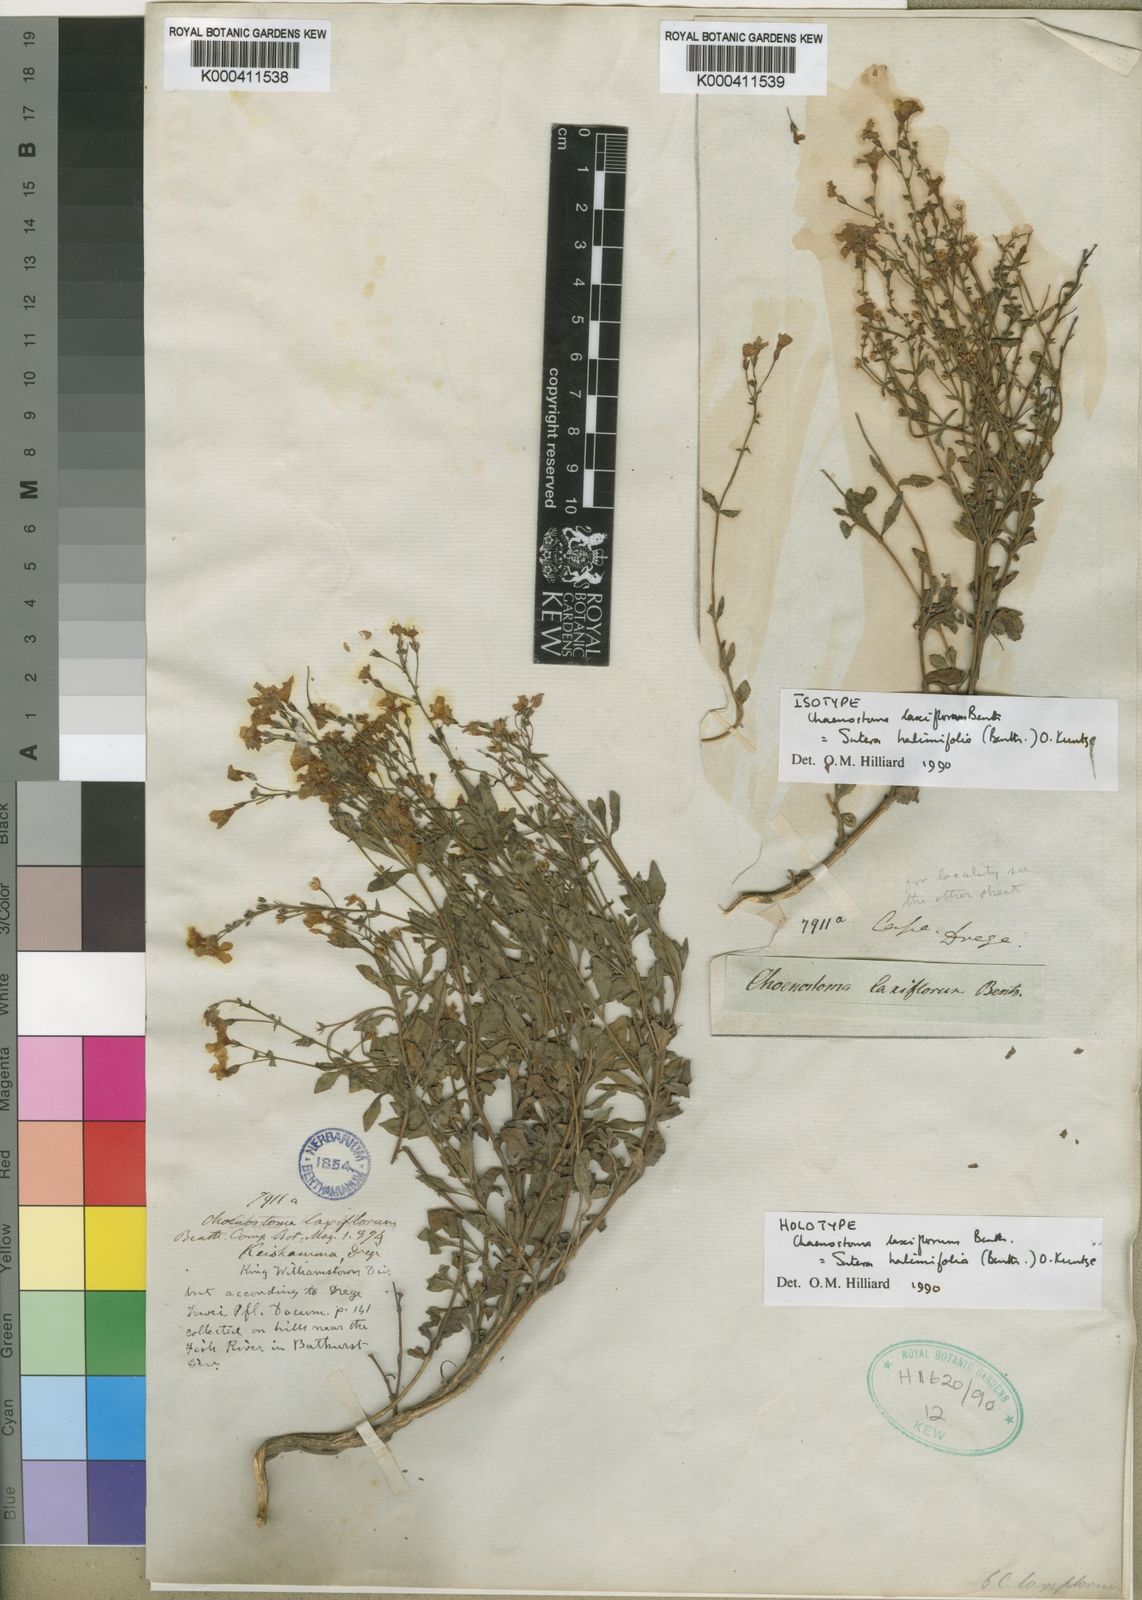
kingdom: Plantae
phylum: Tracheophyta
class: Magnoliopsida
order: Lamiales
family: Scrophulariaceae
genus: Chaenostoma
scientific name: Chaenostoma halimifolium
